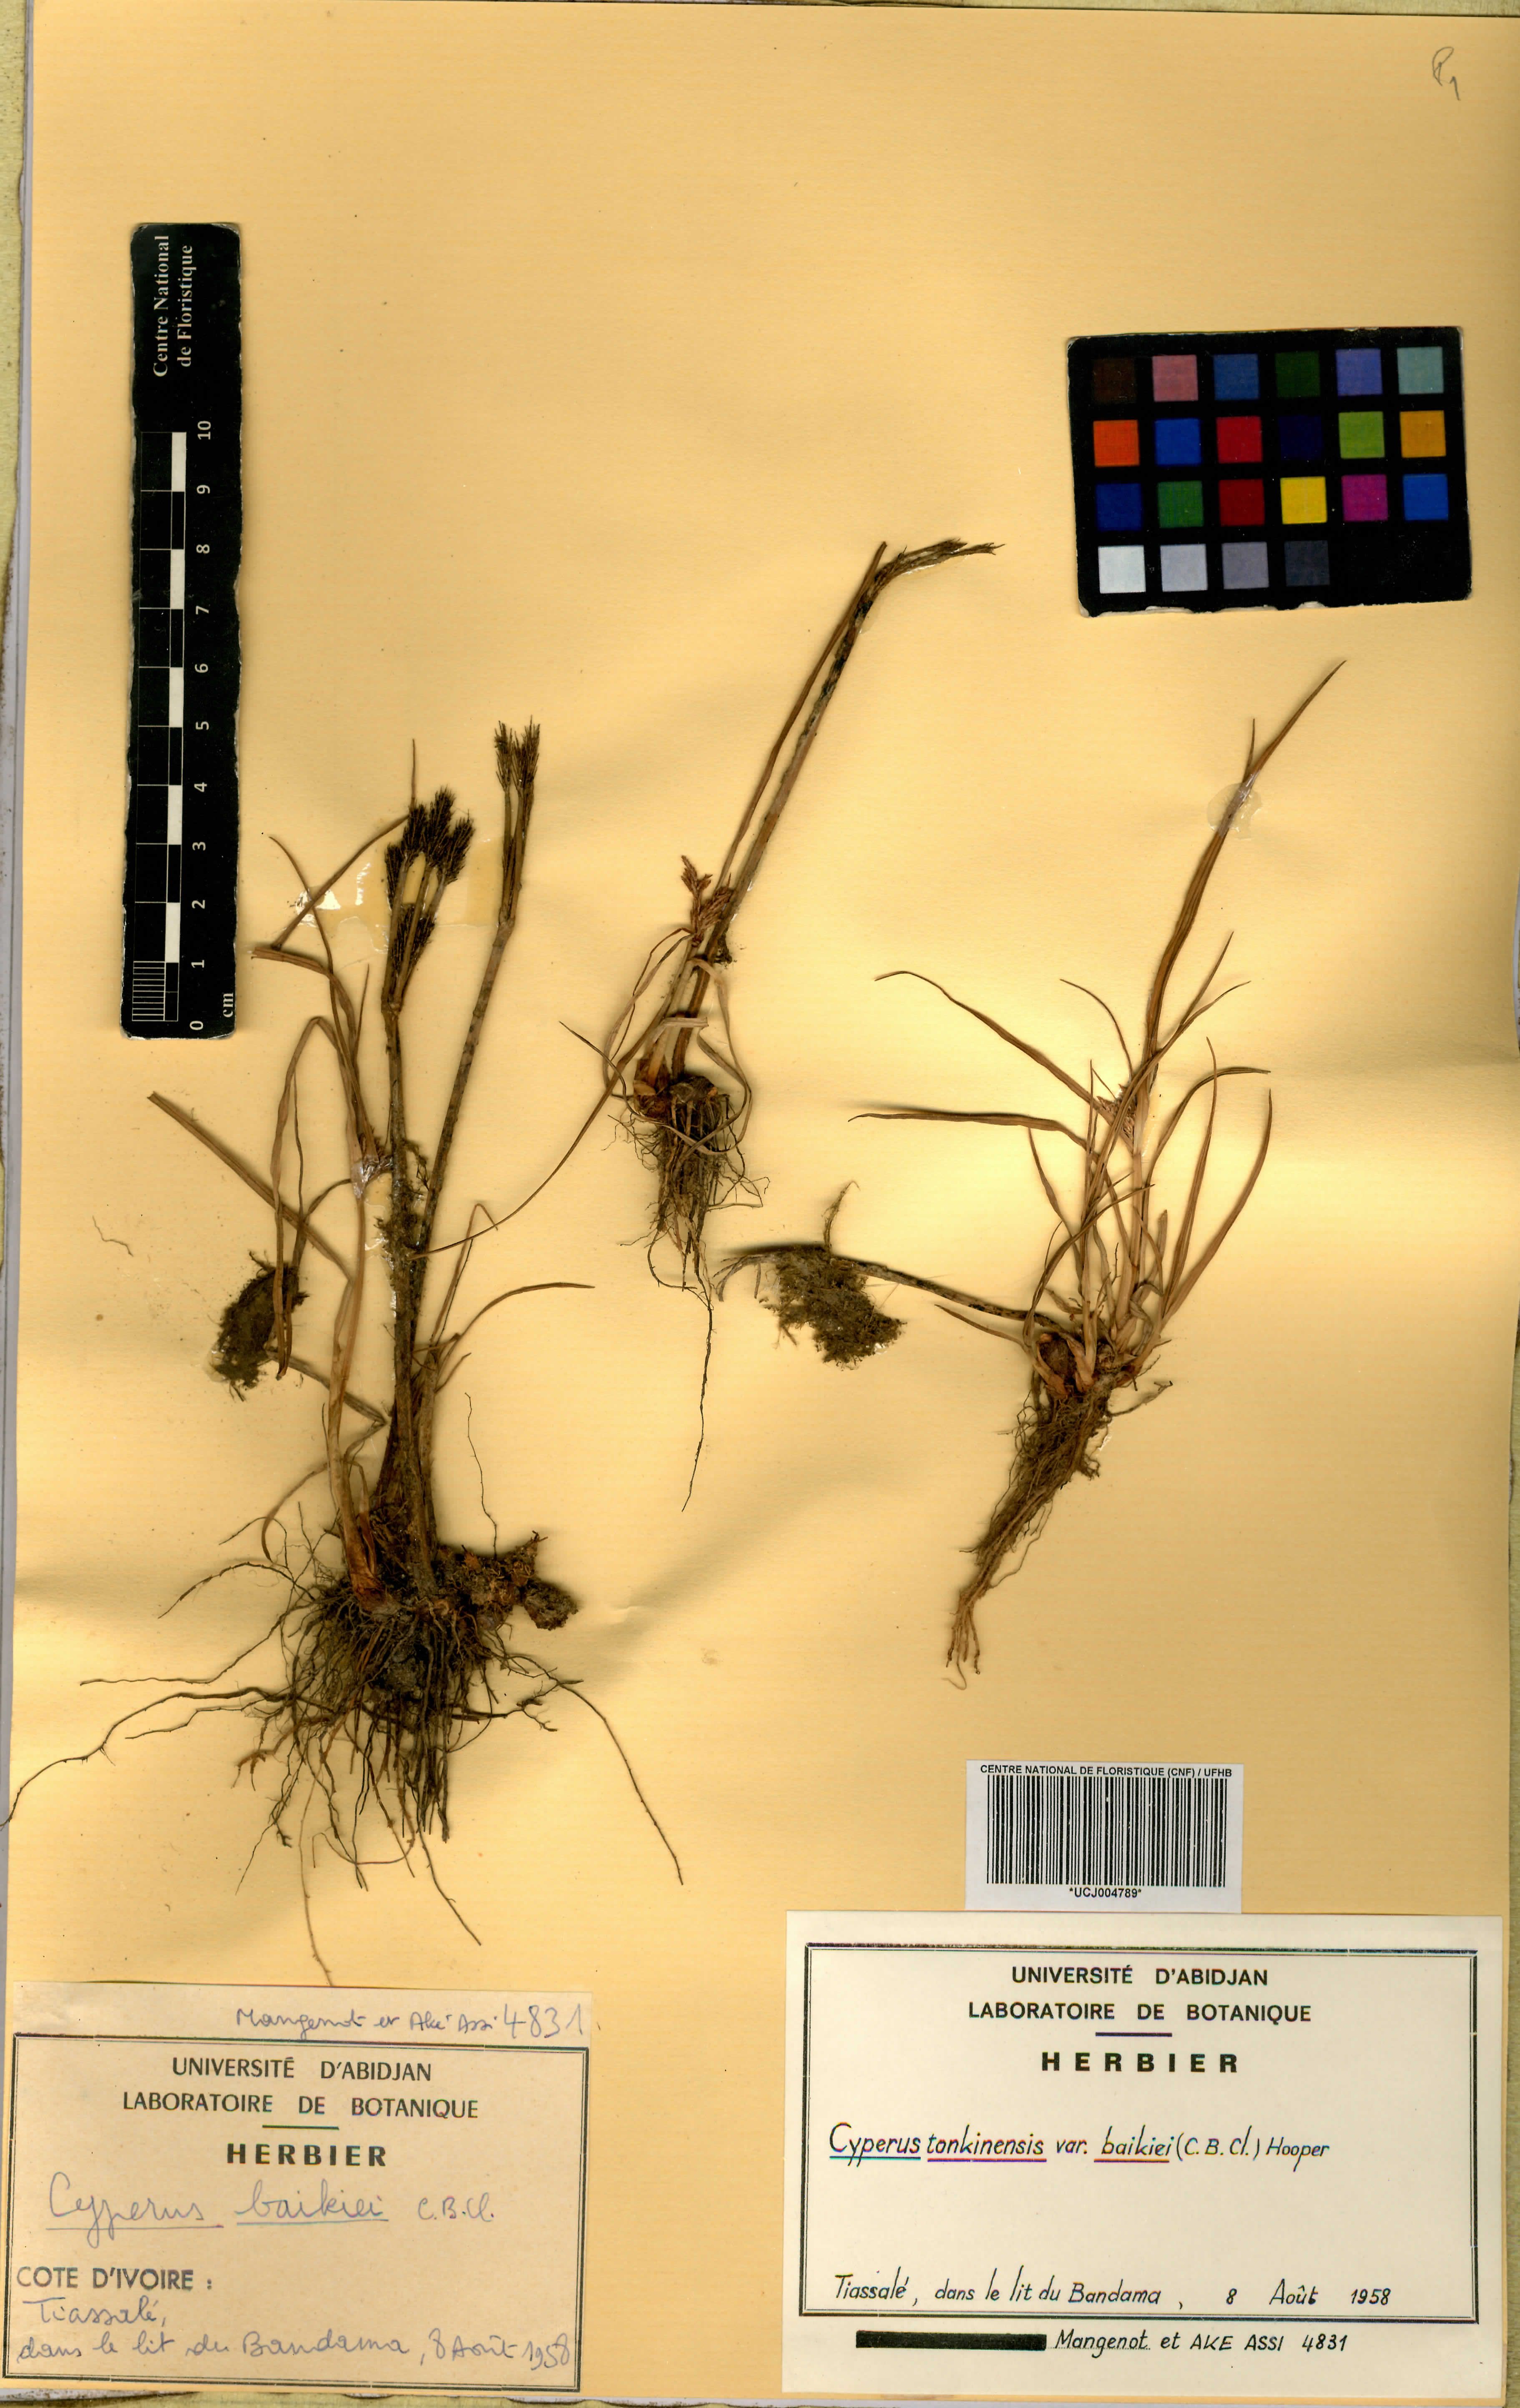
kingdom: Plantae
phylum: Tracheophyta
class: Liliopsida
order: Poales
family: Cyperaceae
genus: Cyperus
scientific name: Cyperus tonkinensis
